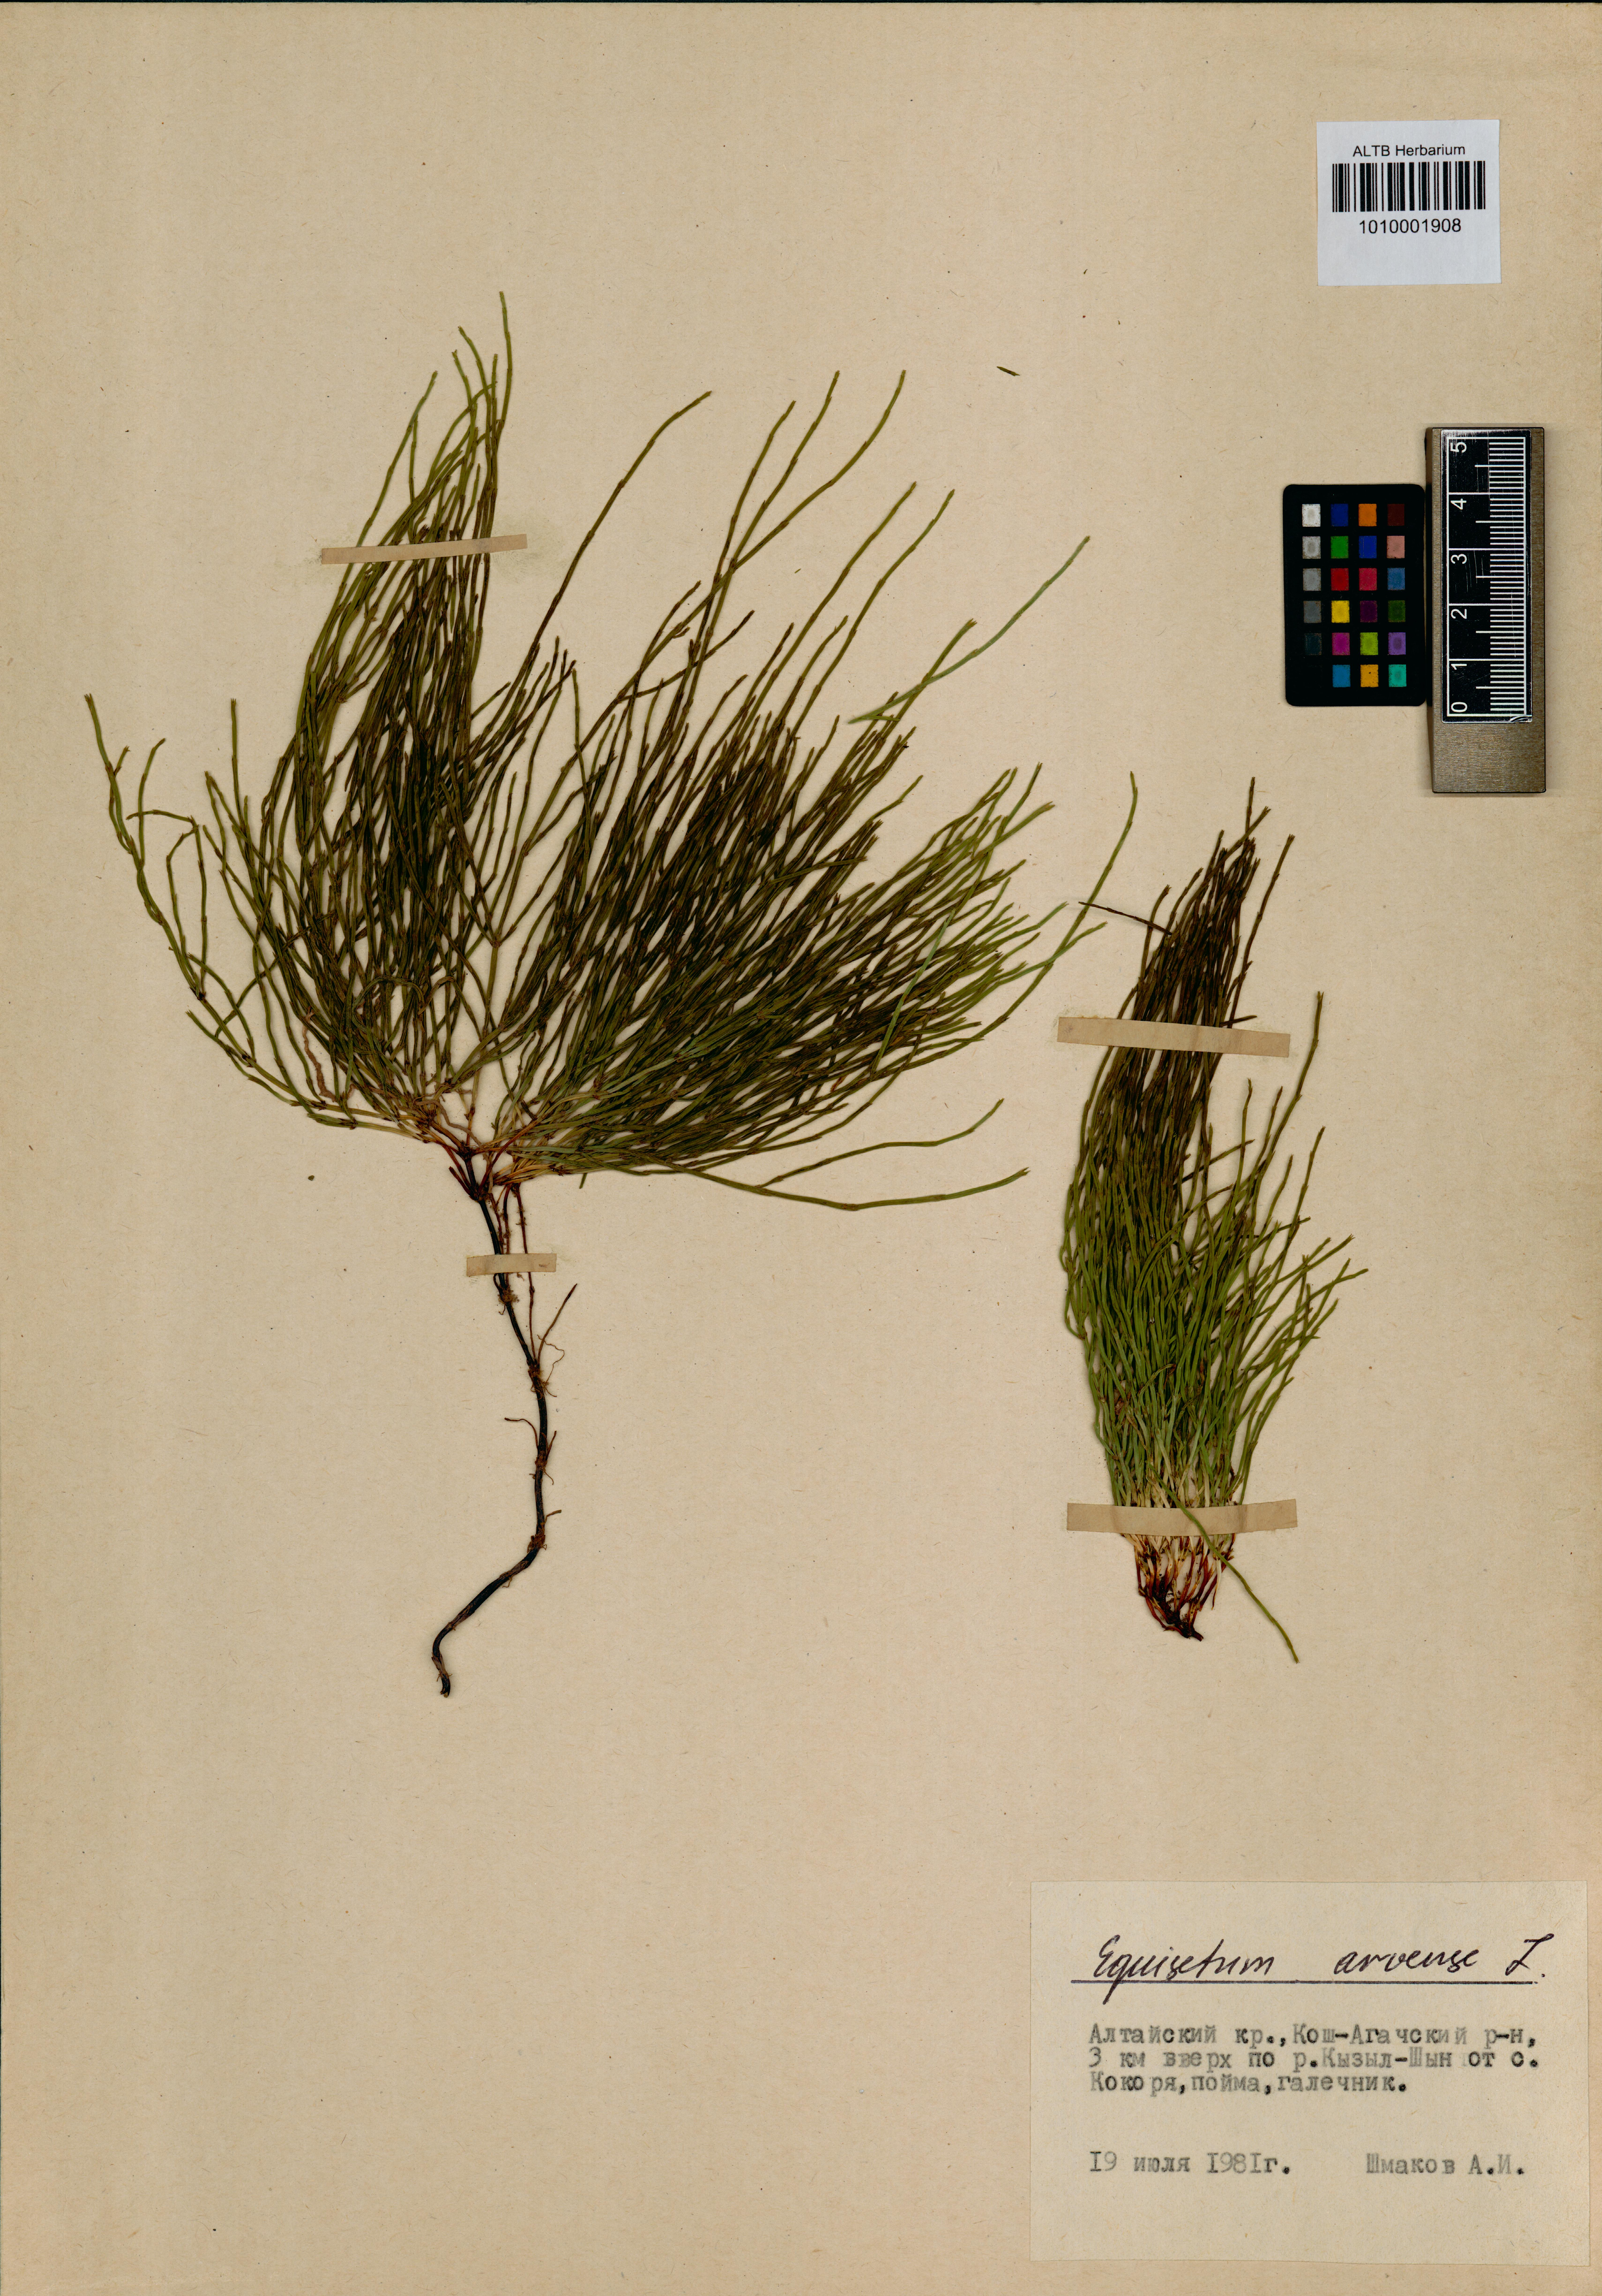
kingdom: Plantae
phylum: Tracheophyta
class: Polypodiopsida
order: Equisetales
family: Equisetaceae
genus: Equisetum
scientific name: Equisetum arvense
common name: Field horsetail
